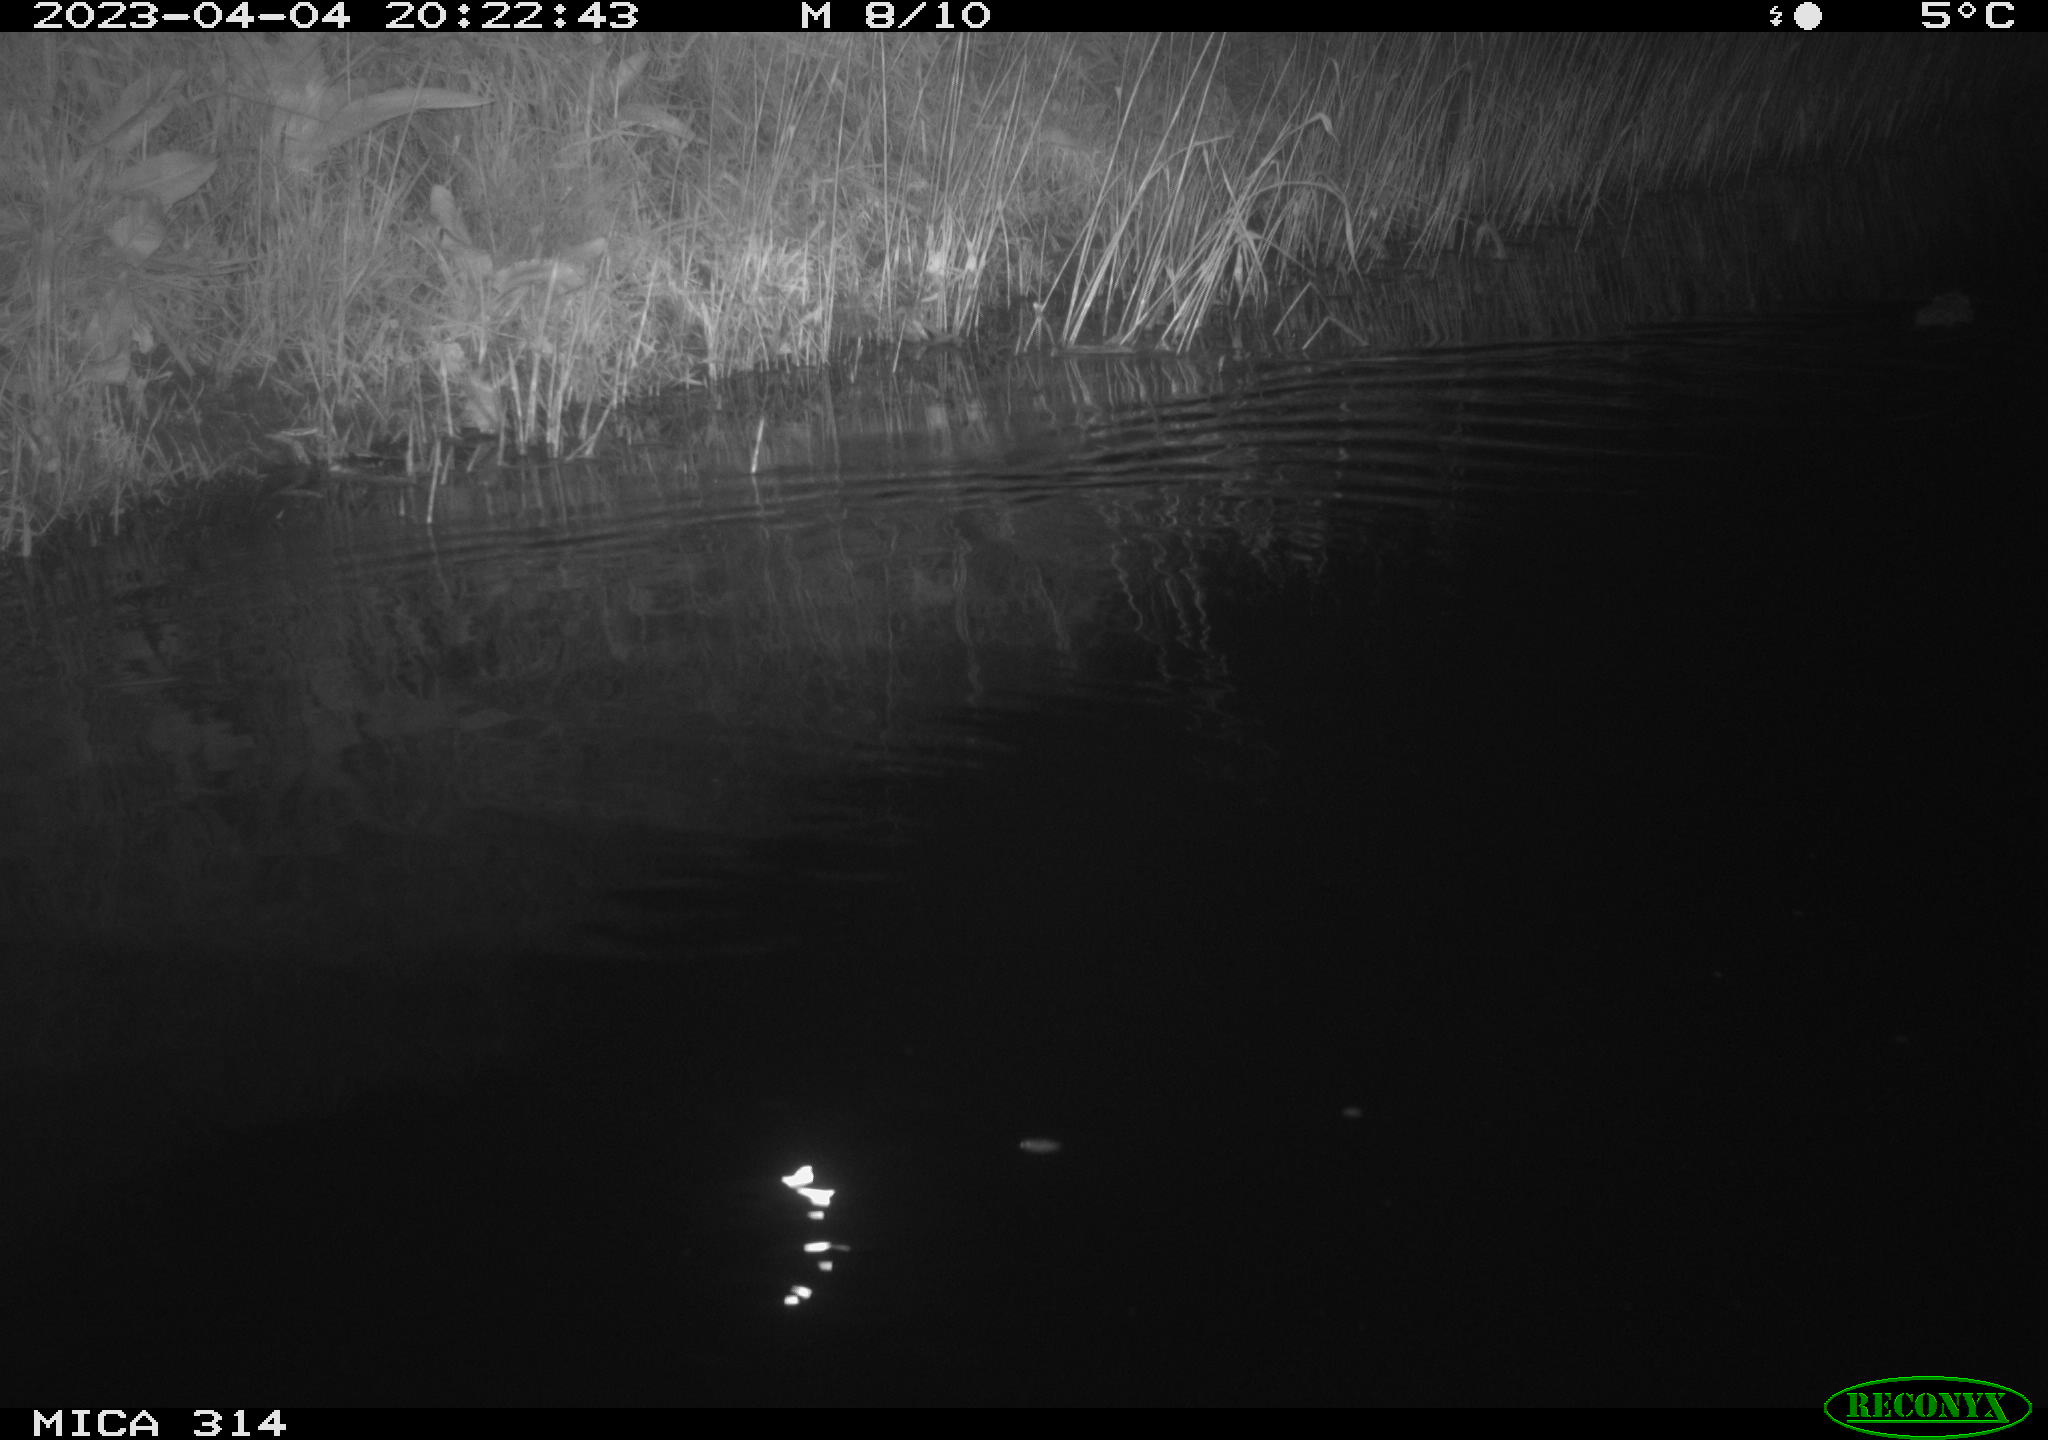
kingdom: Animalia
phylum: Chordata
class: Mammalia
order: Rodentia
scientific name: Rodentia
